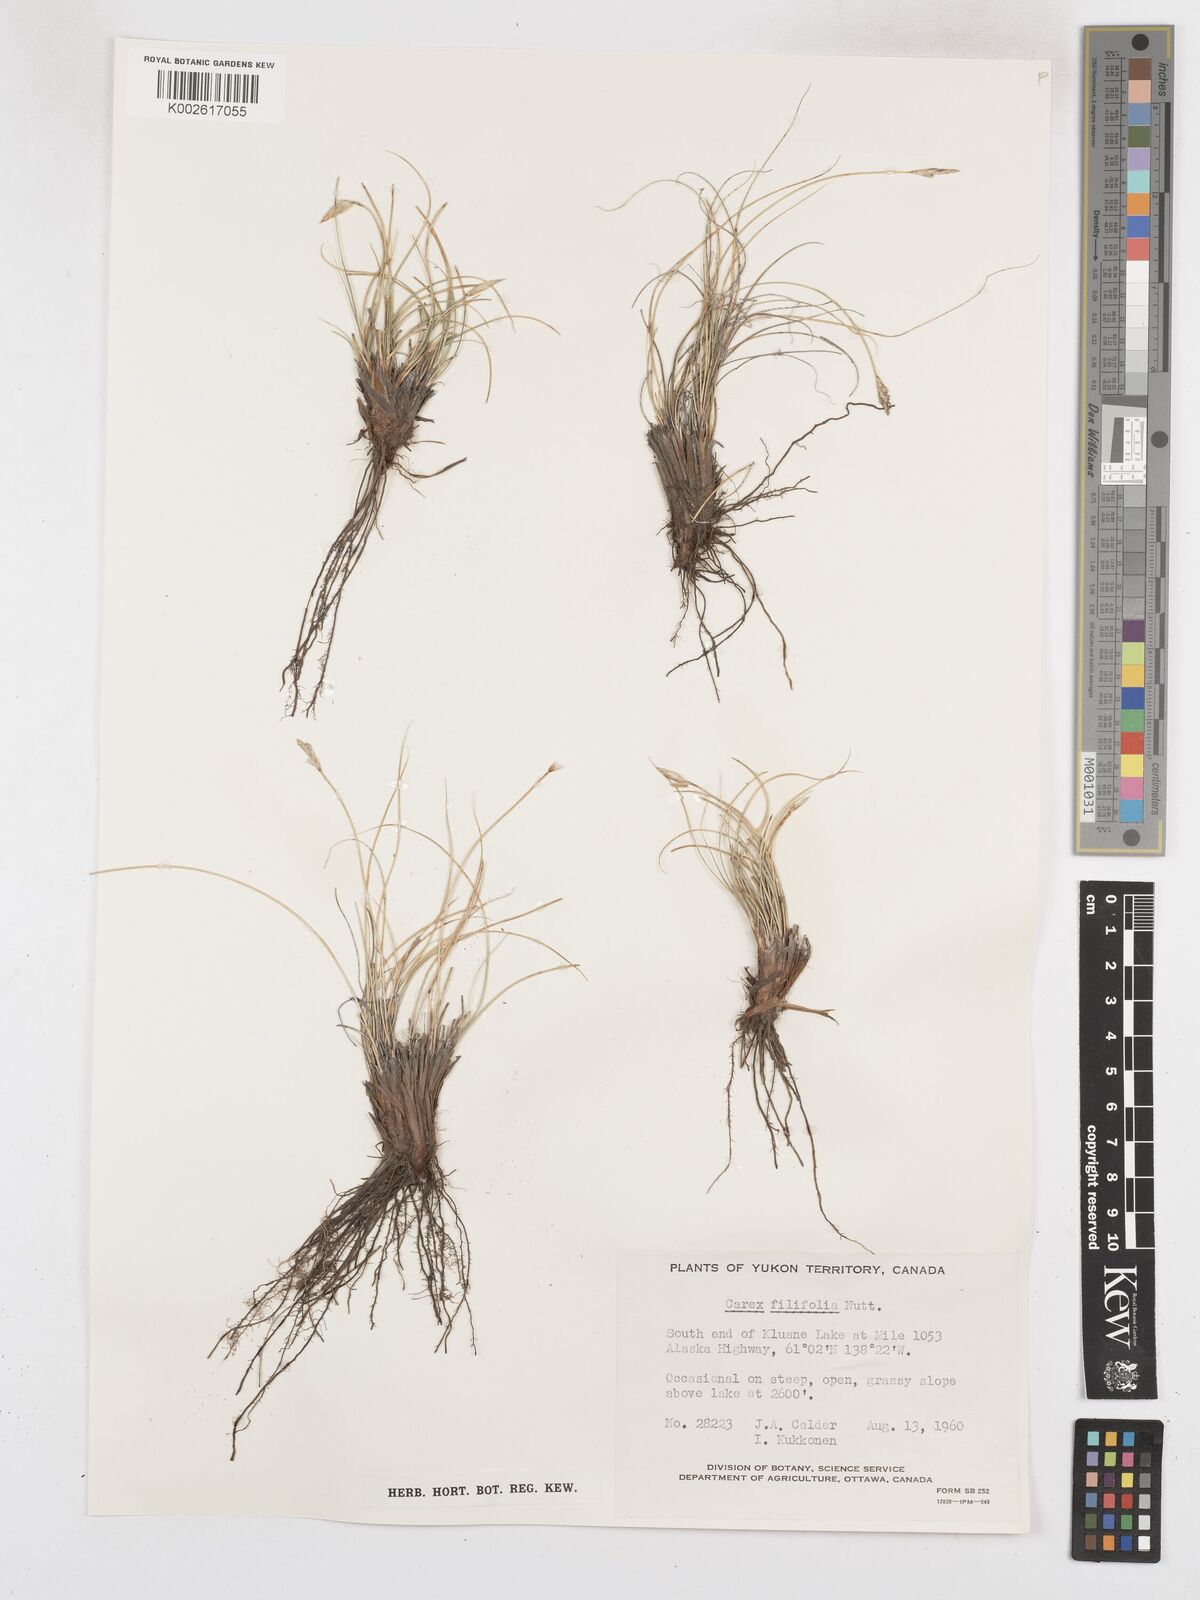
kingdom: Plantae
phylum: Tracheophyta
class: Liliopsida
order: Poales
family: Cyperaceae
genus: Carex
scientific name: Carex filifolia
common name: Threadleaf sedge
